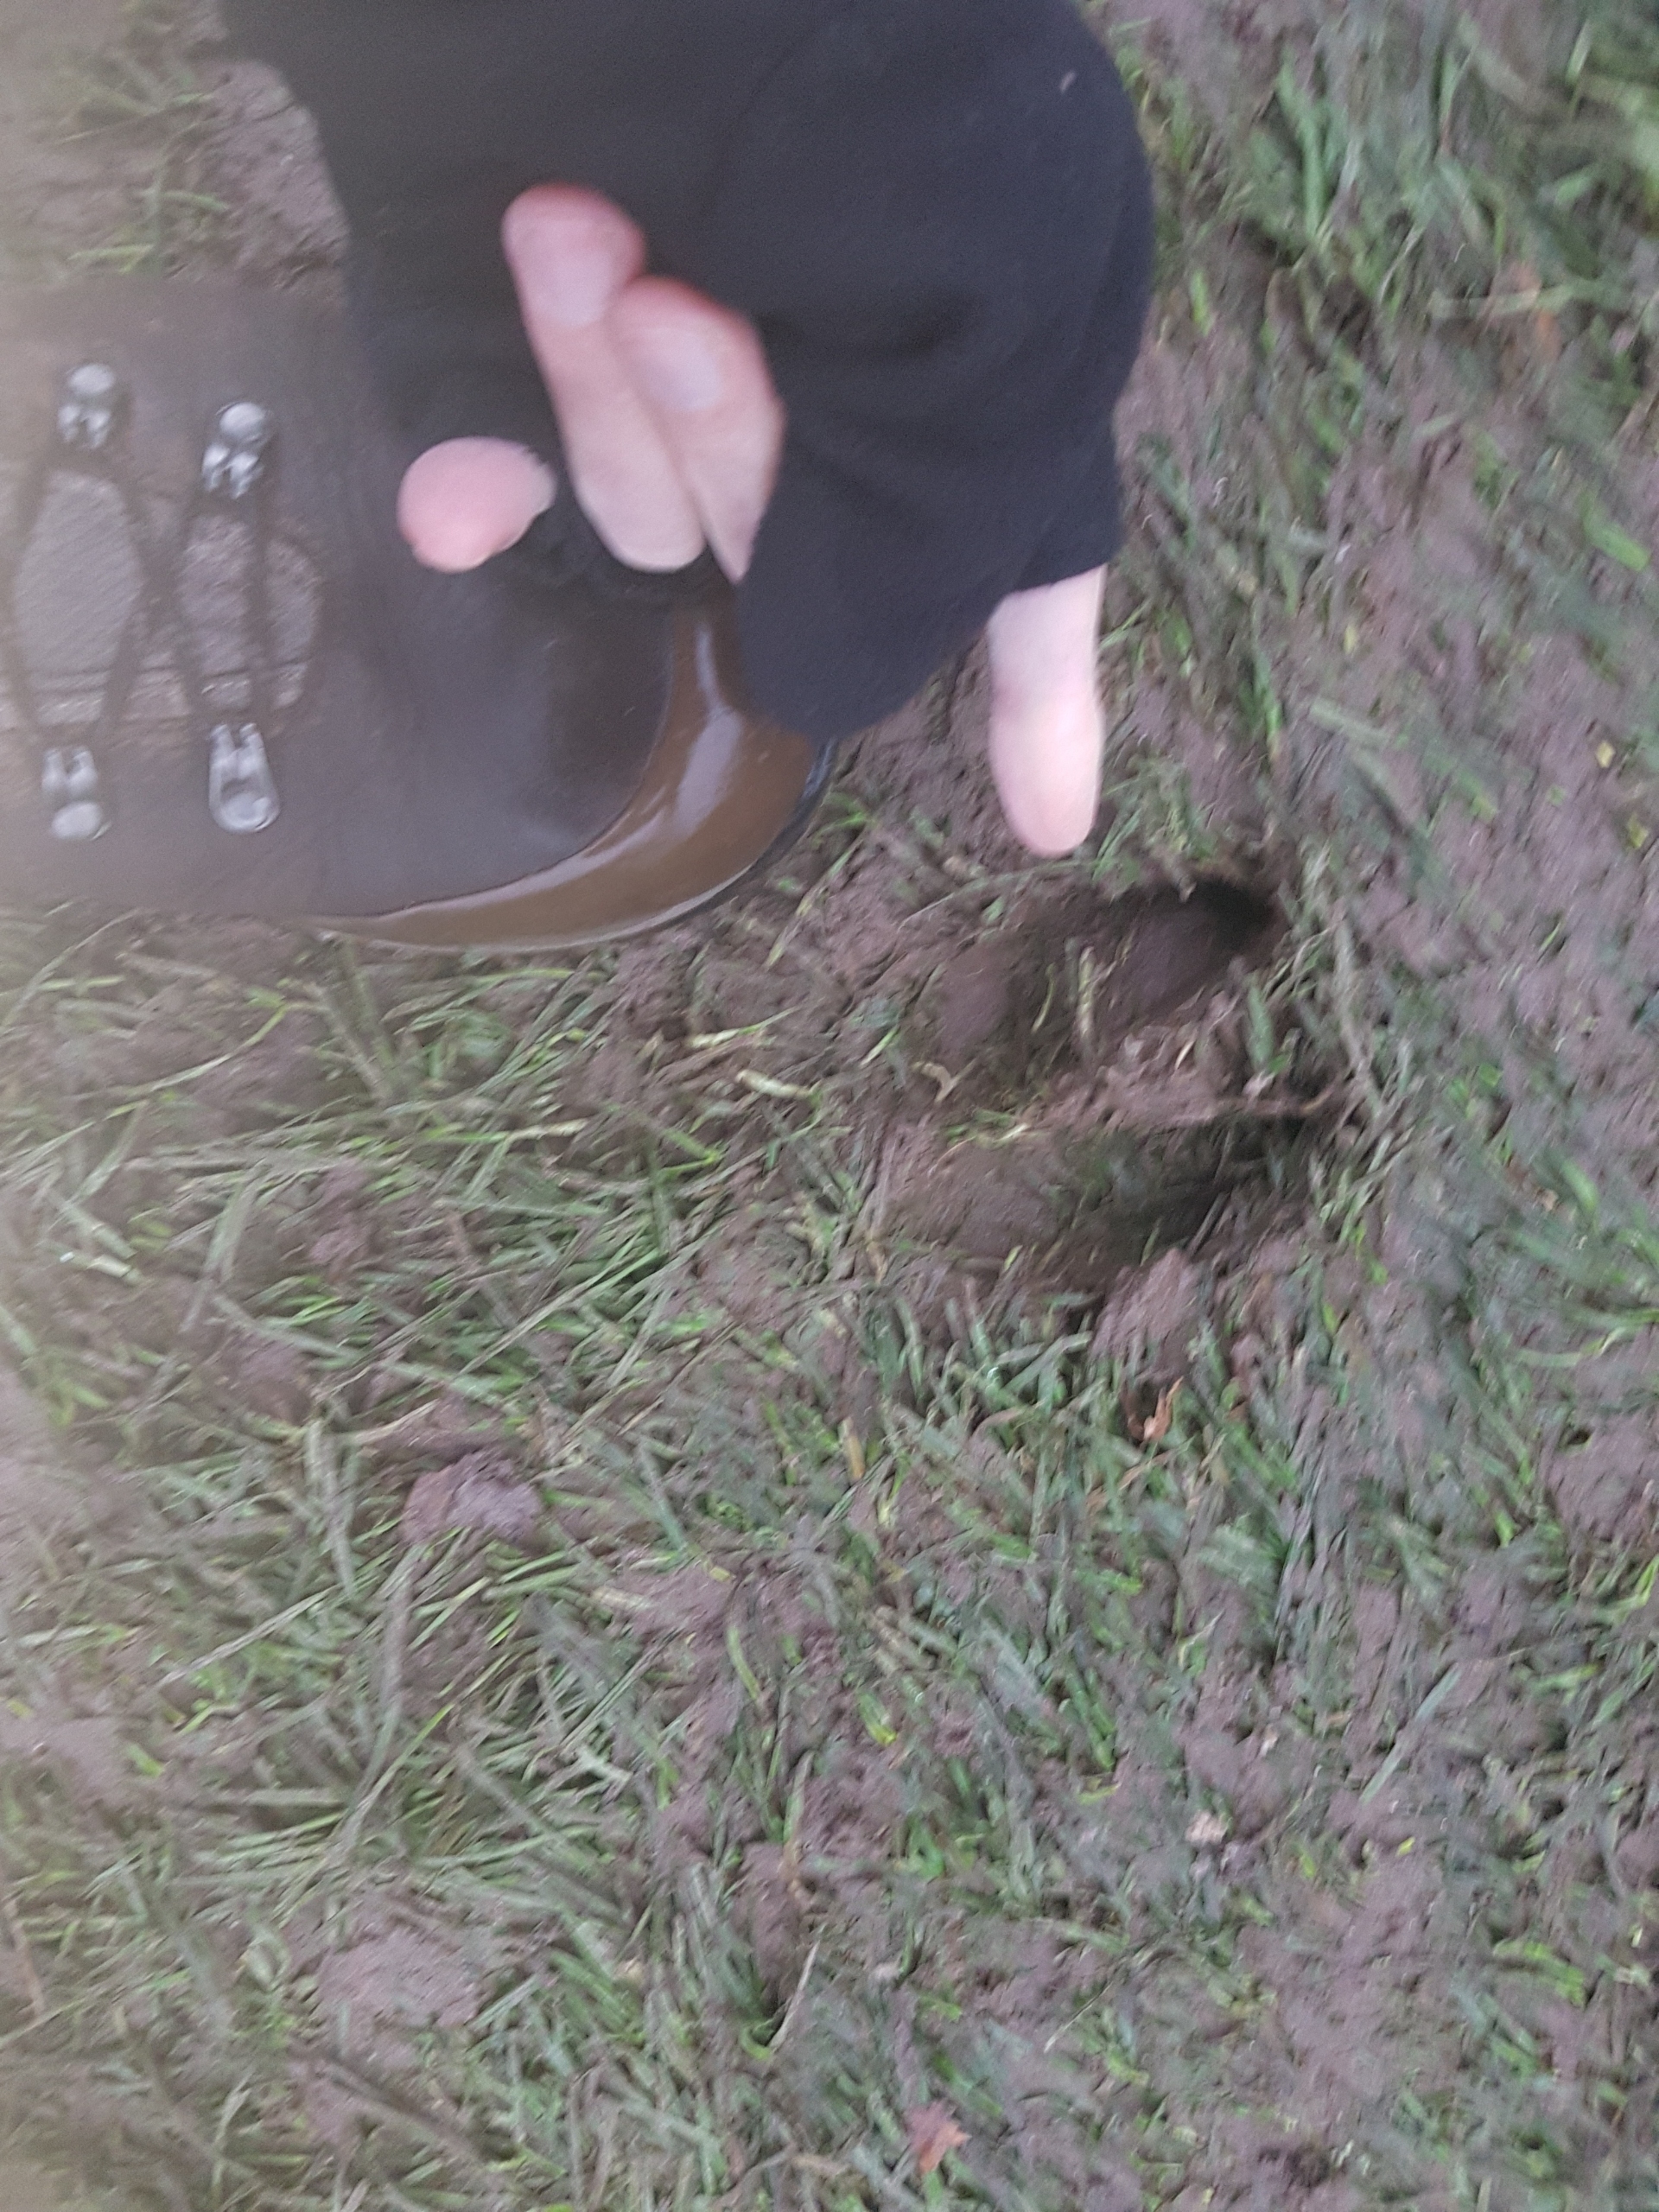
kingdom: Animalia
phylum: Chordata
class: Mammalia
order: Artiodactyla
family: Cervidae
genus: Cervus
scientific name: Cervus elaphus
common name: Krondyr
